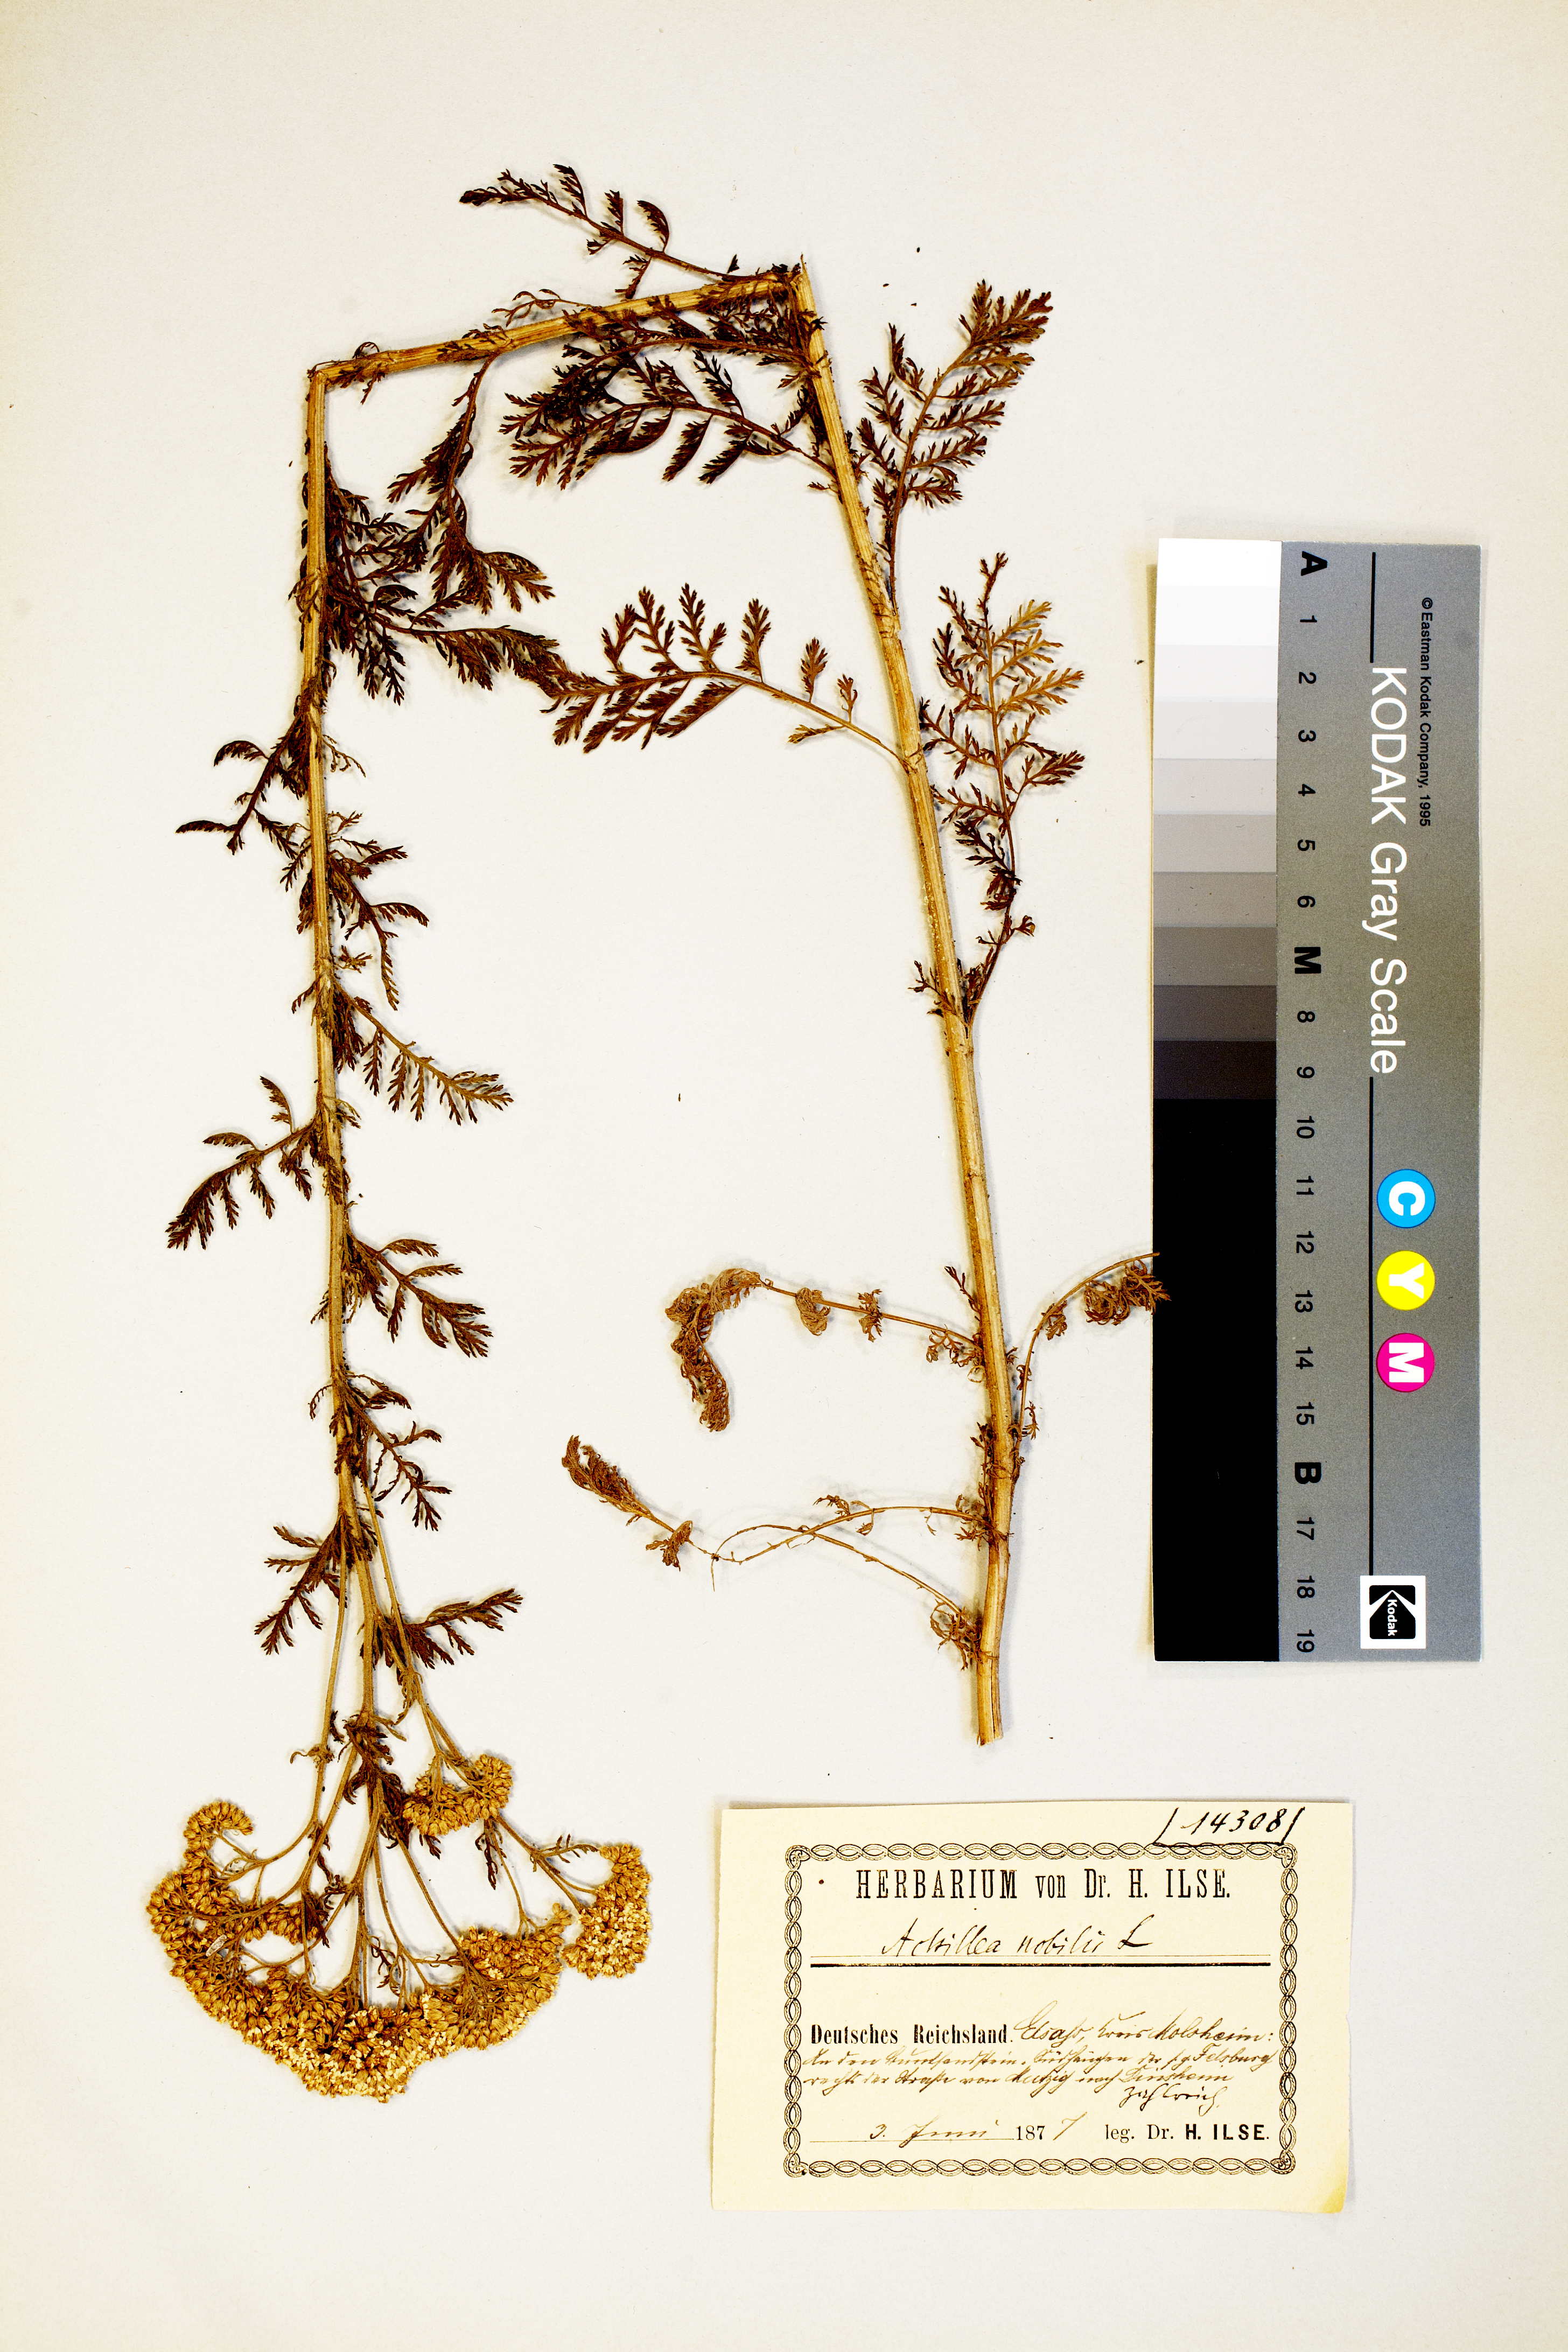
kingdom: Plantae
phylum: Tracheophyta
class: Magnoliopsida
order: Asterales
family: Asteraceae
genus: Achillea
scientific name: Achillea nobilis
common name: Noble yarrow
